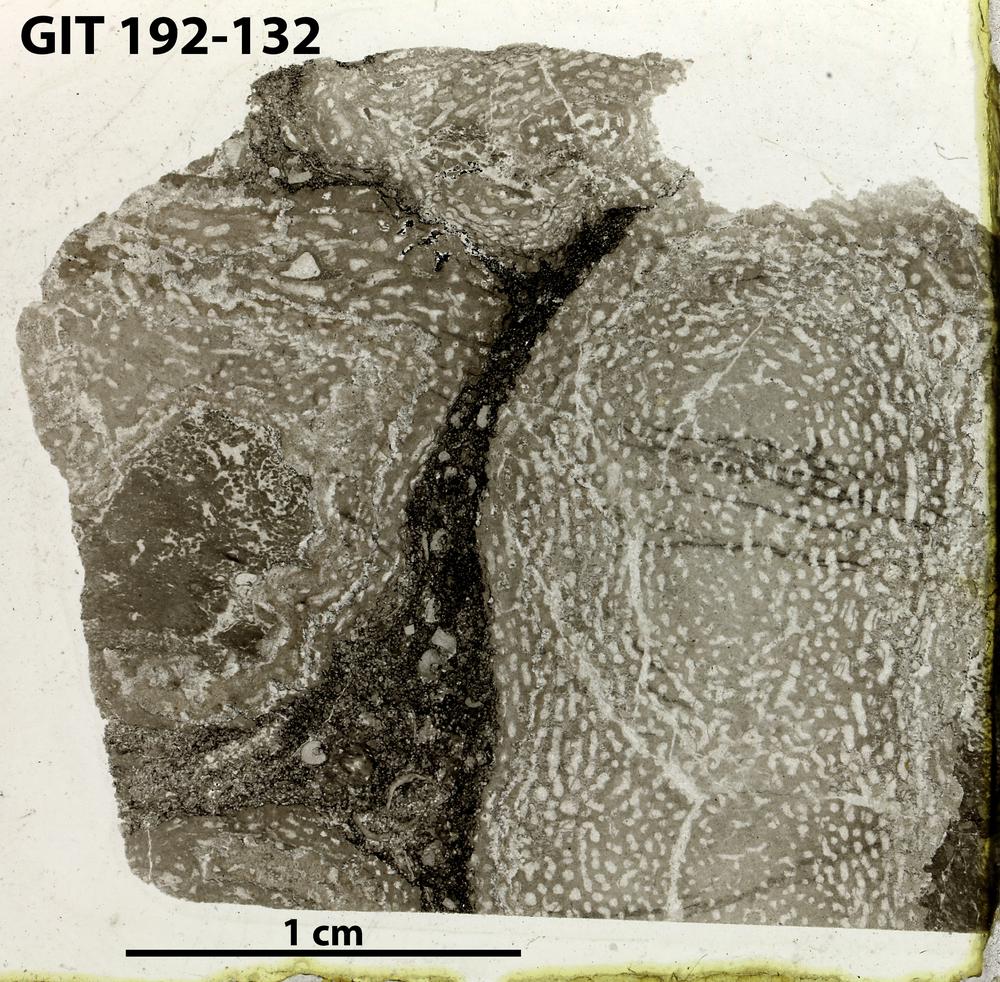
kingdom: Animalia
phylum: Porifera
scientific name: Porifera
